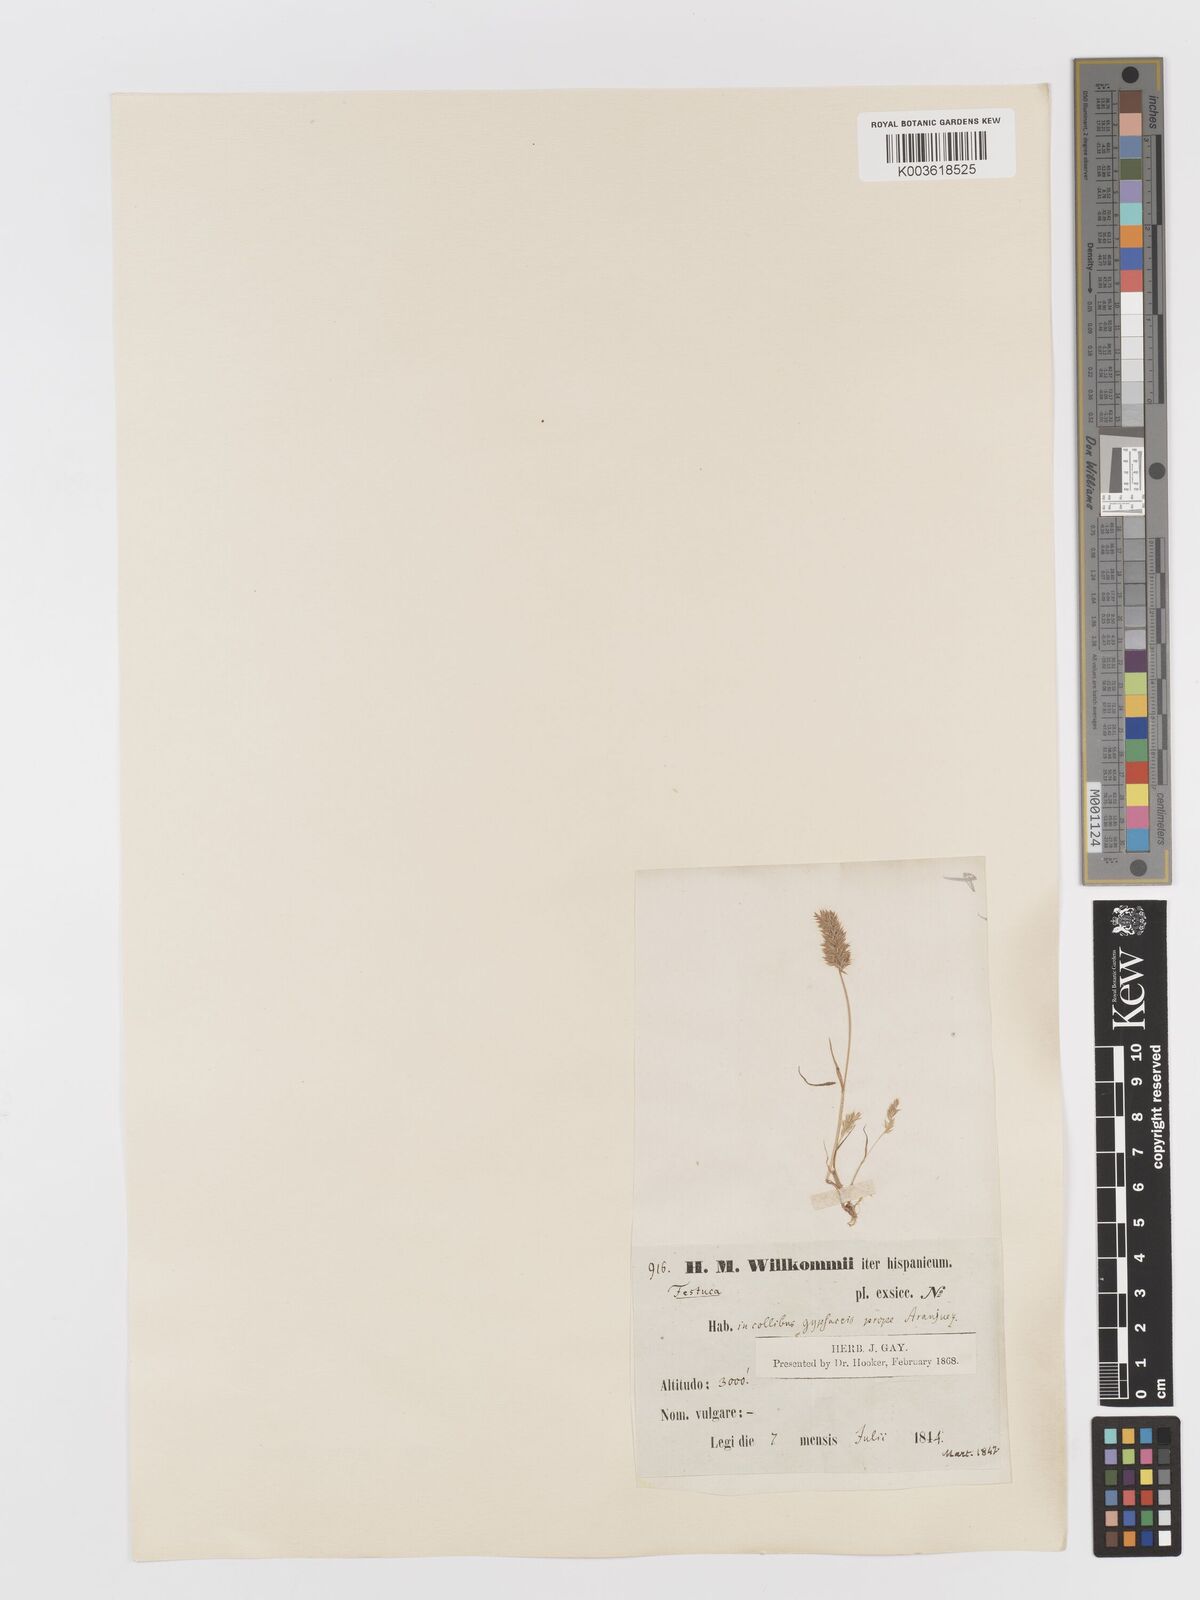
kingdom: Plantae
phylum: Tracheophyta
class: Liliopsida
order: Poales
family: Poaceae
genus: Rostraria
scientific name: Rostraria cristata
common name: Mediterranean hair-grass
